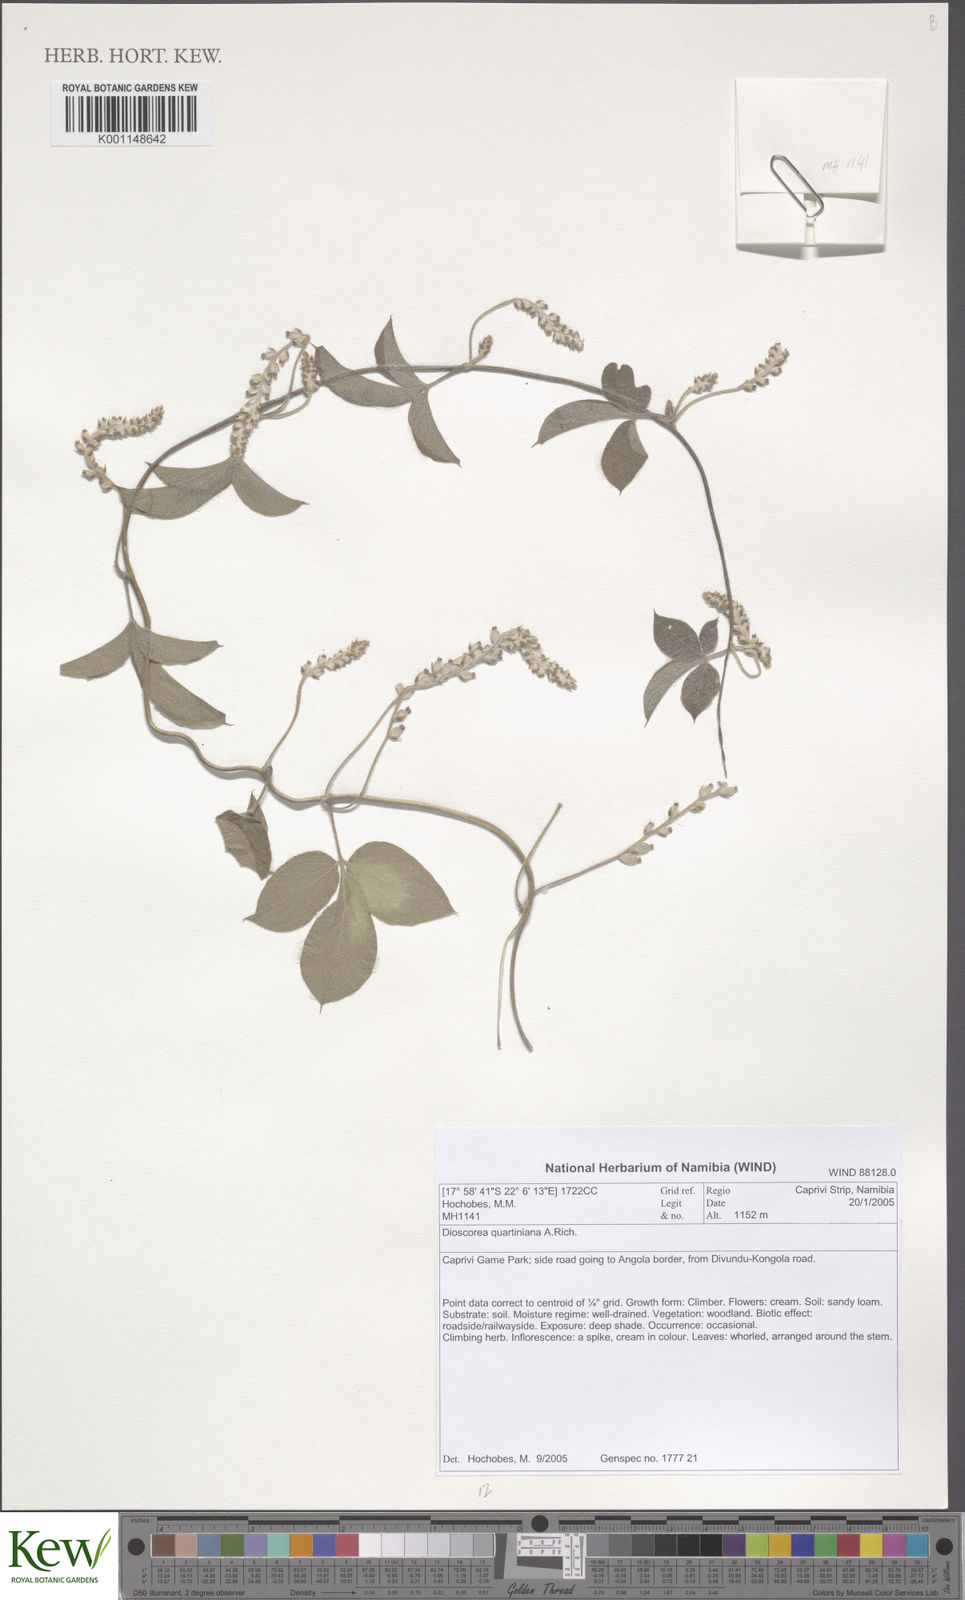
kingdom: Plantae
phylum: Tracheophyta
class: Liliopsida
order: Dioscoreales
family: Dioscoreaceae
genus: Dioscorea
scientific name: Dioscorea quartiniana
